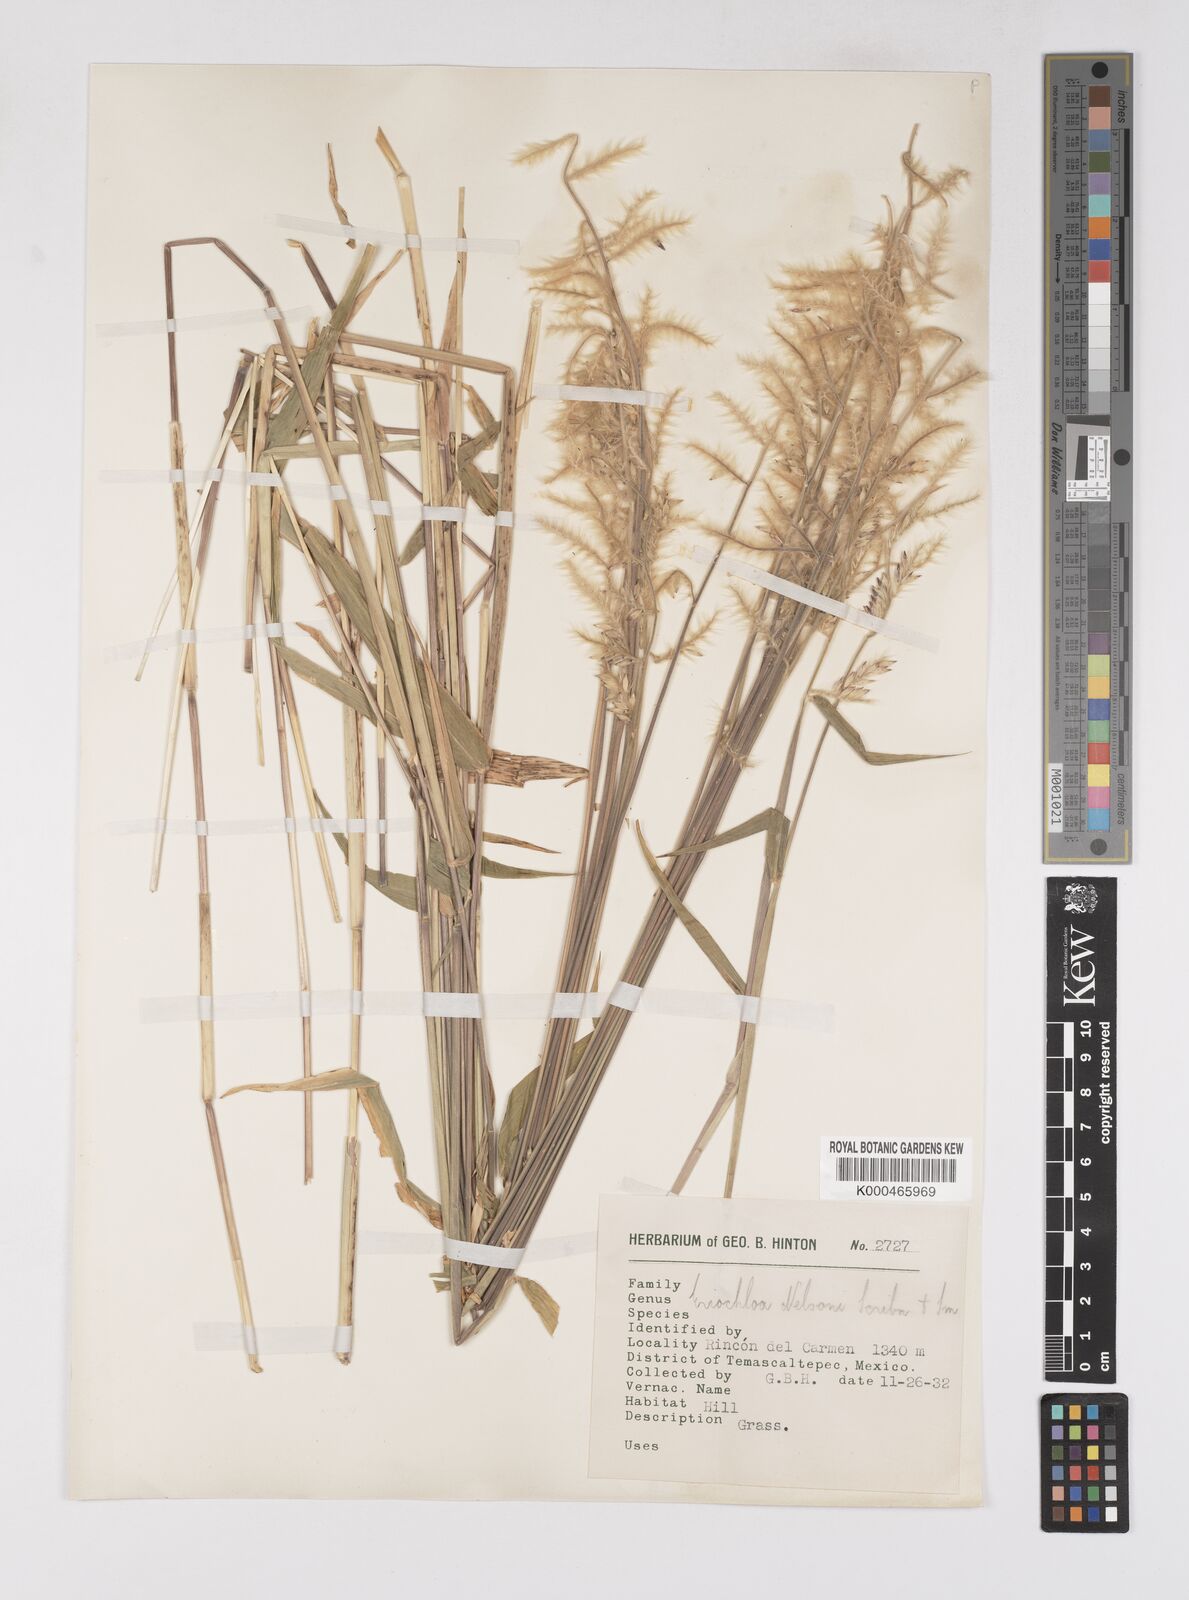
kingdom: Plantae
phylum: Tracheophyta
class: Liliopsida
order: Poales
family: Poaceae
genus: Eriochloa
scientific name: Eriochloa nelsonii
